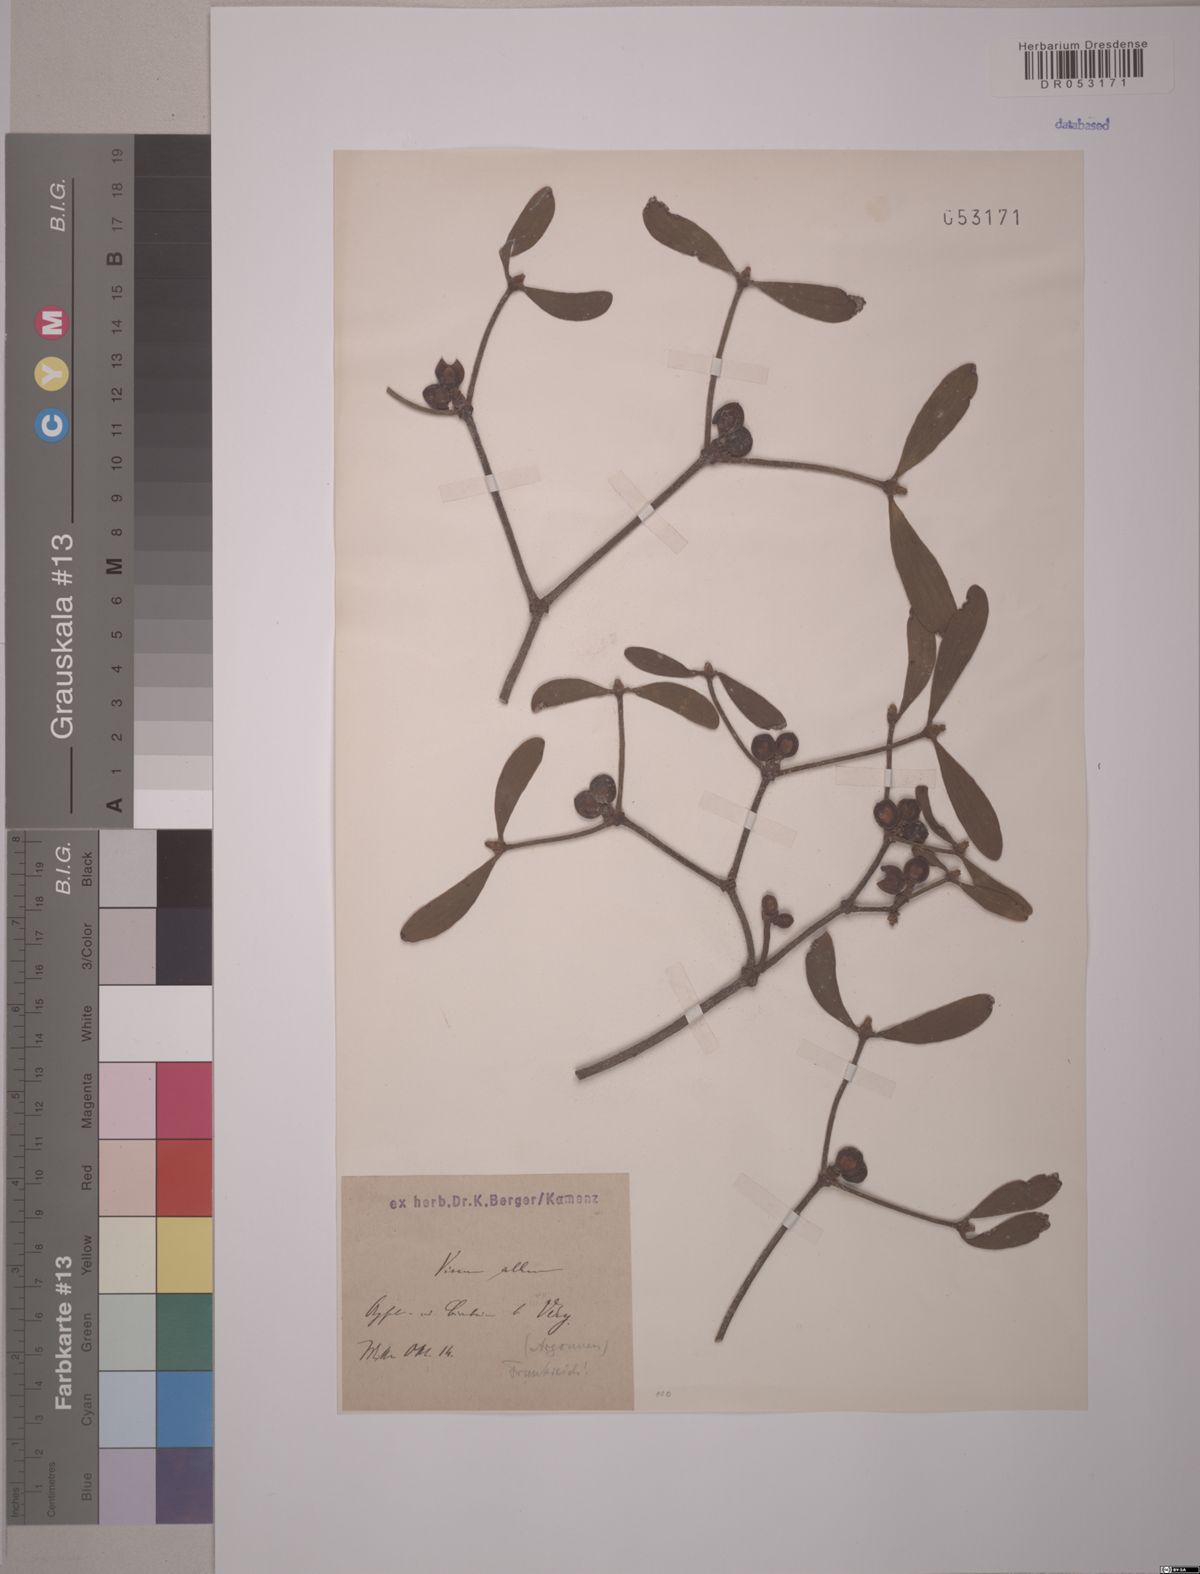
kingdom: Plantae
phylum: Tracheophyta
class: Magnoliopsida
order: Santalales
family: Viscaceae
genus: Viscum
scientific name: Viscum album
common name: Mistletoe
